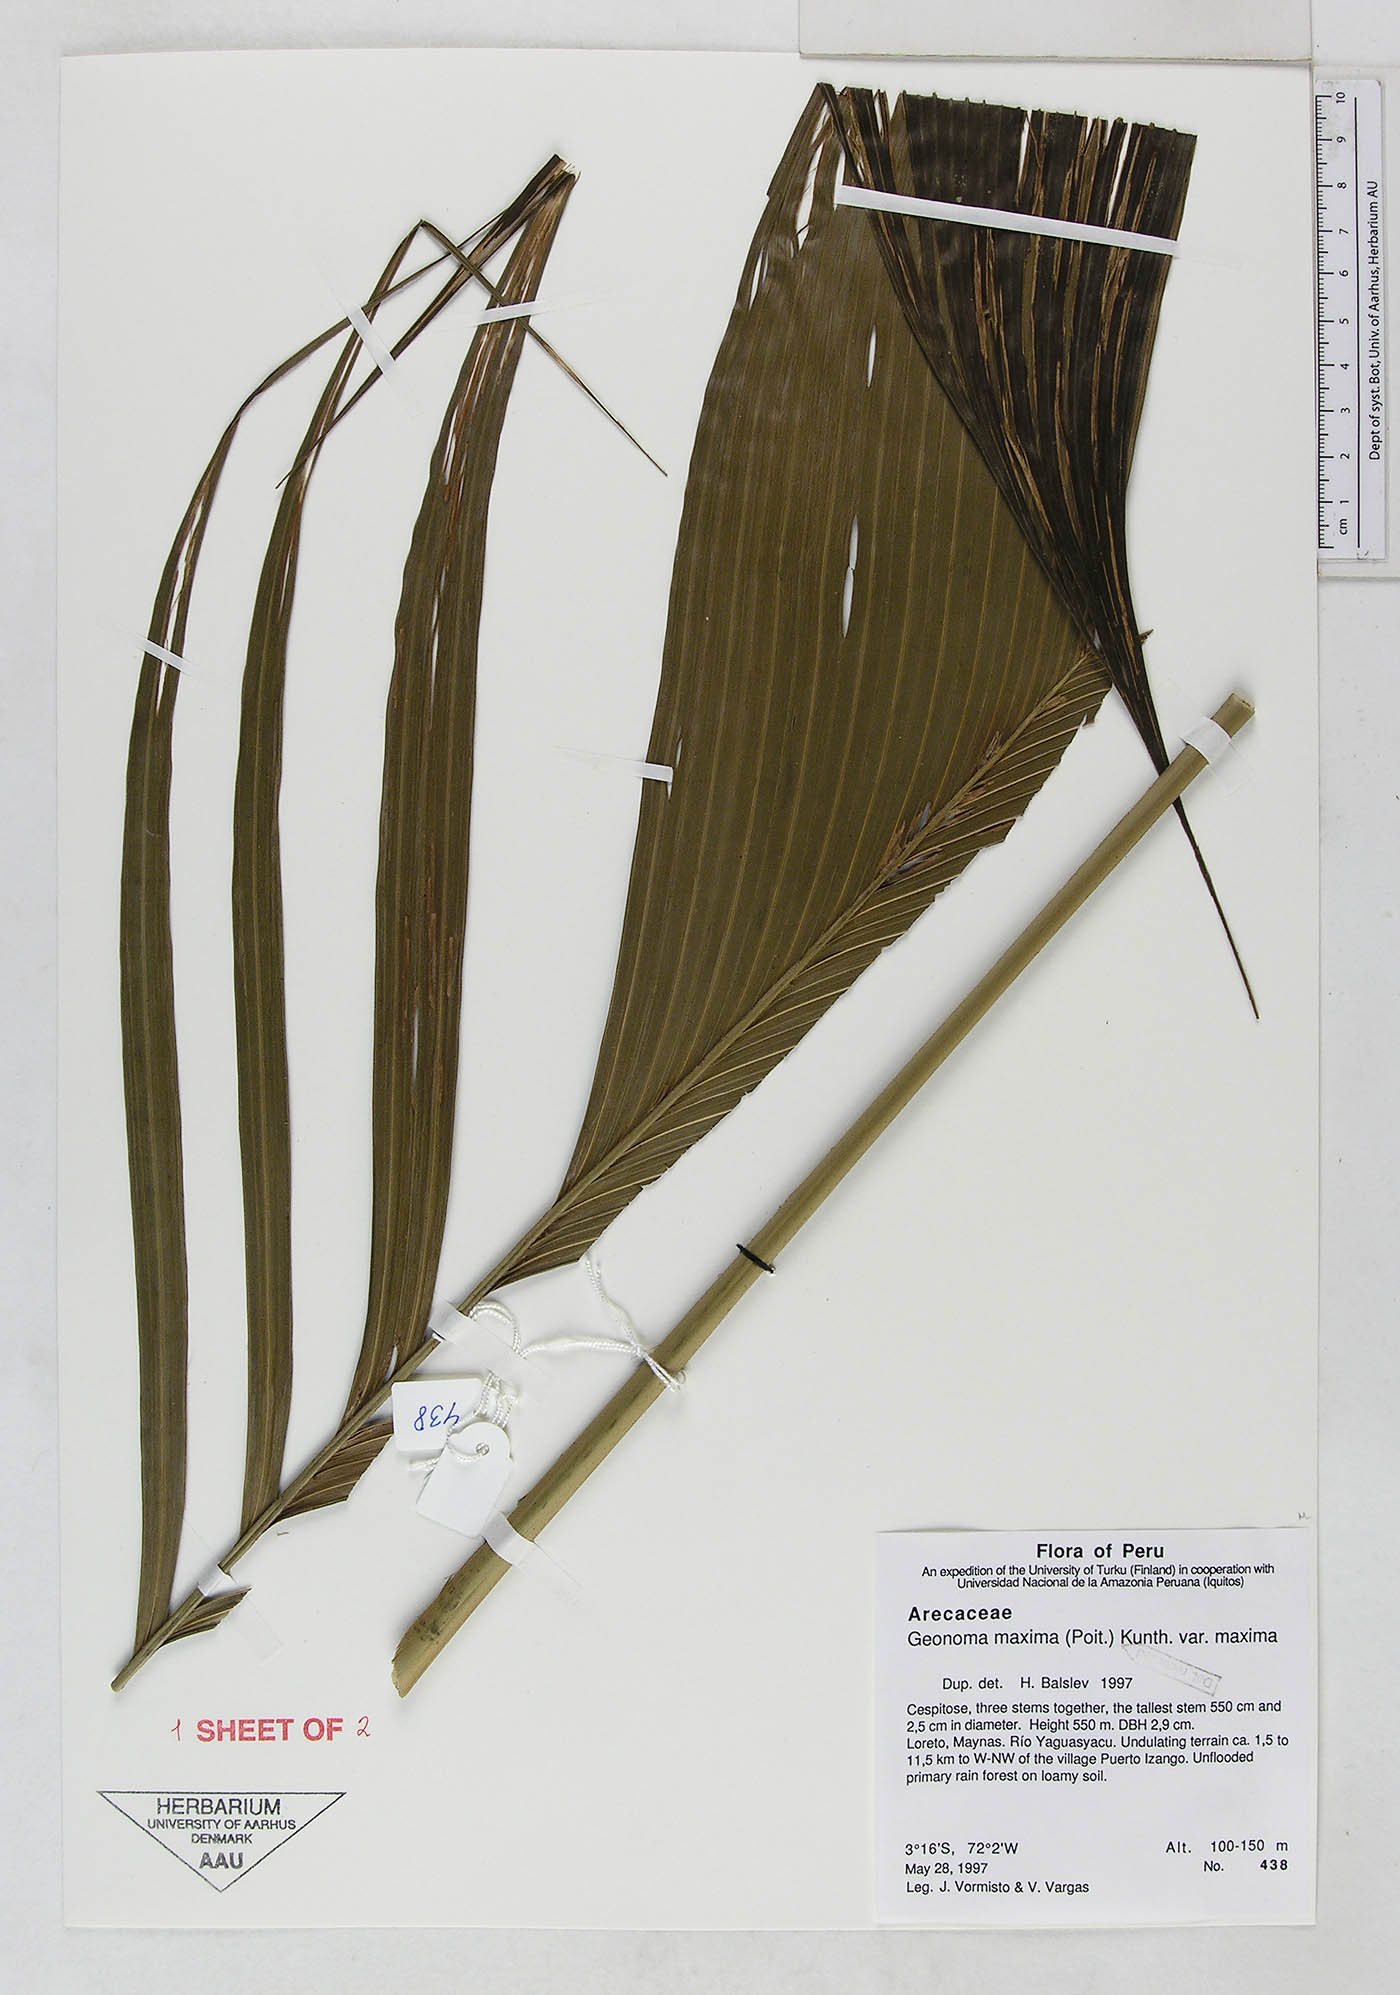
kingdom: Plantae
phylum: Tracheophyta
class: Liliopsida
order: Arecales
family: Arecaceae
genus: Geonoma
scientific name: Geonoma maxima
